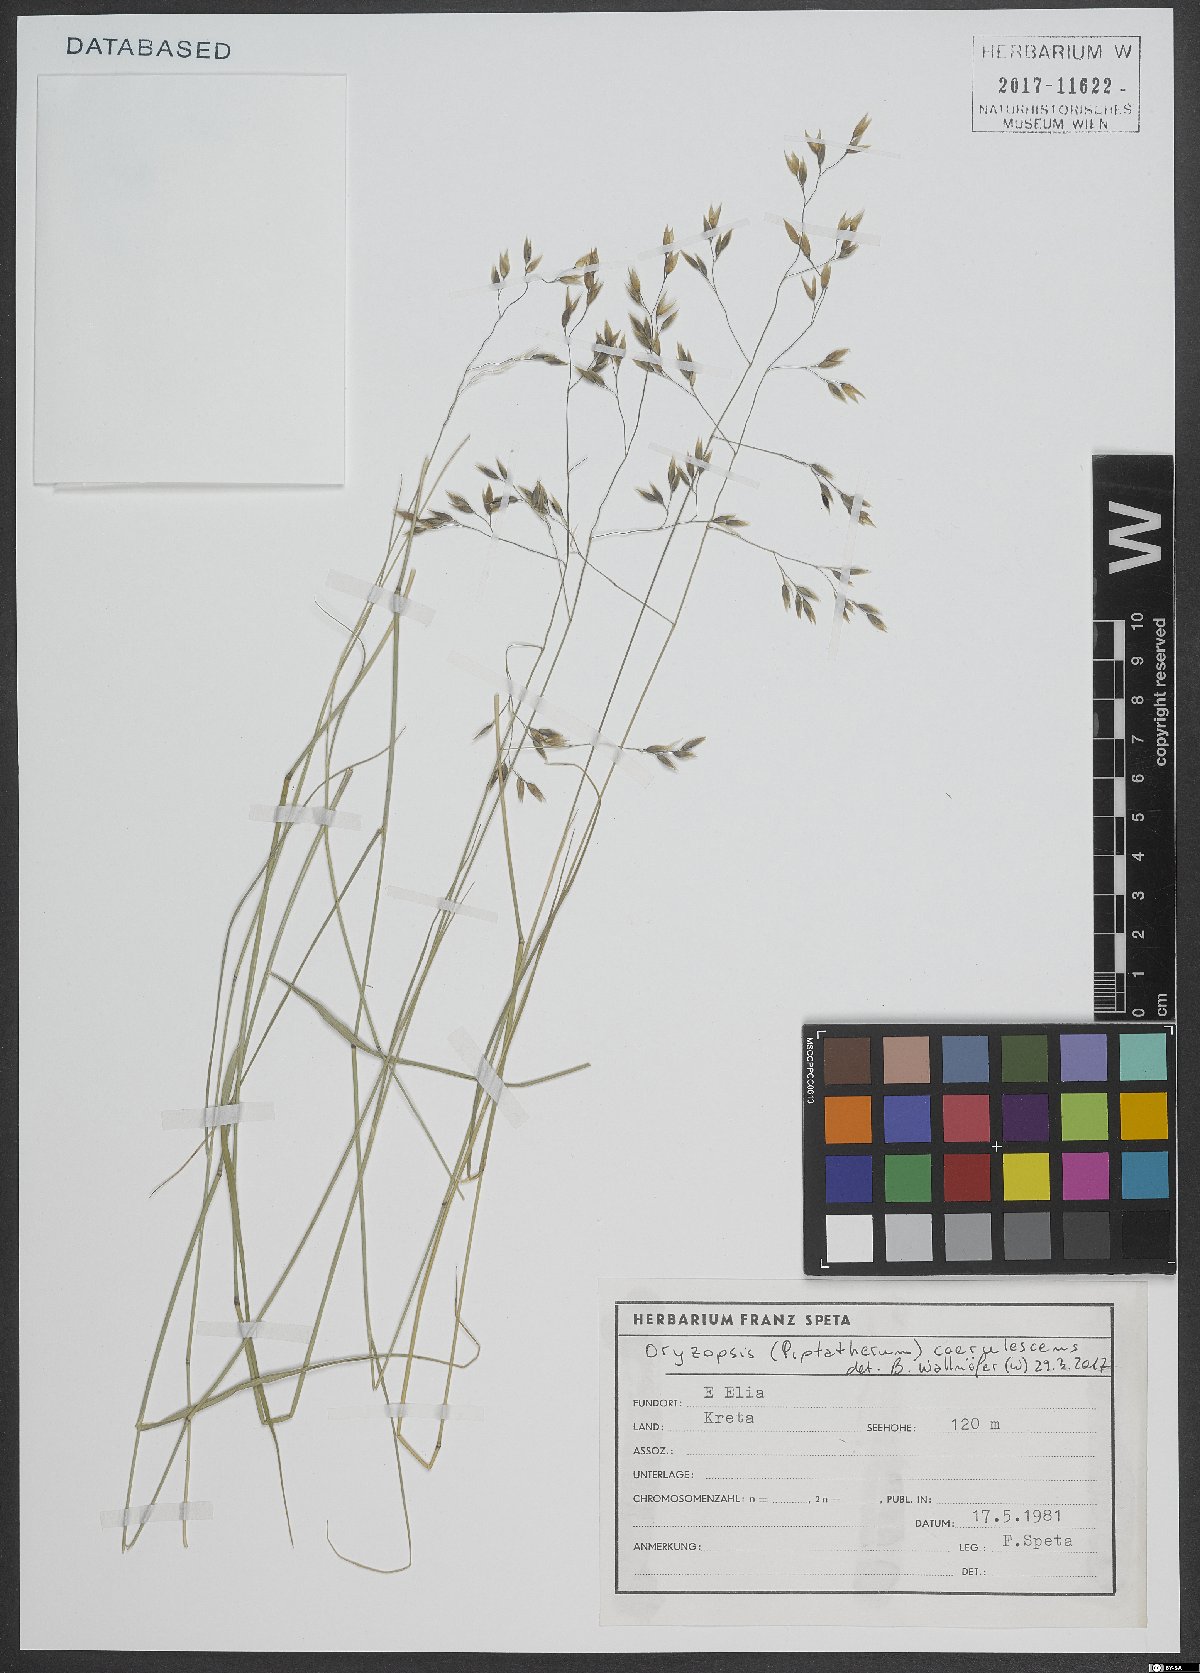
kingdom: Plantae
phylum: Tracheophyta
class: Liliopsida
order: Poales
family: Poaceae
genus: Piptatherum
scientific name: Piptatherum coerulescens
